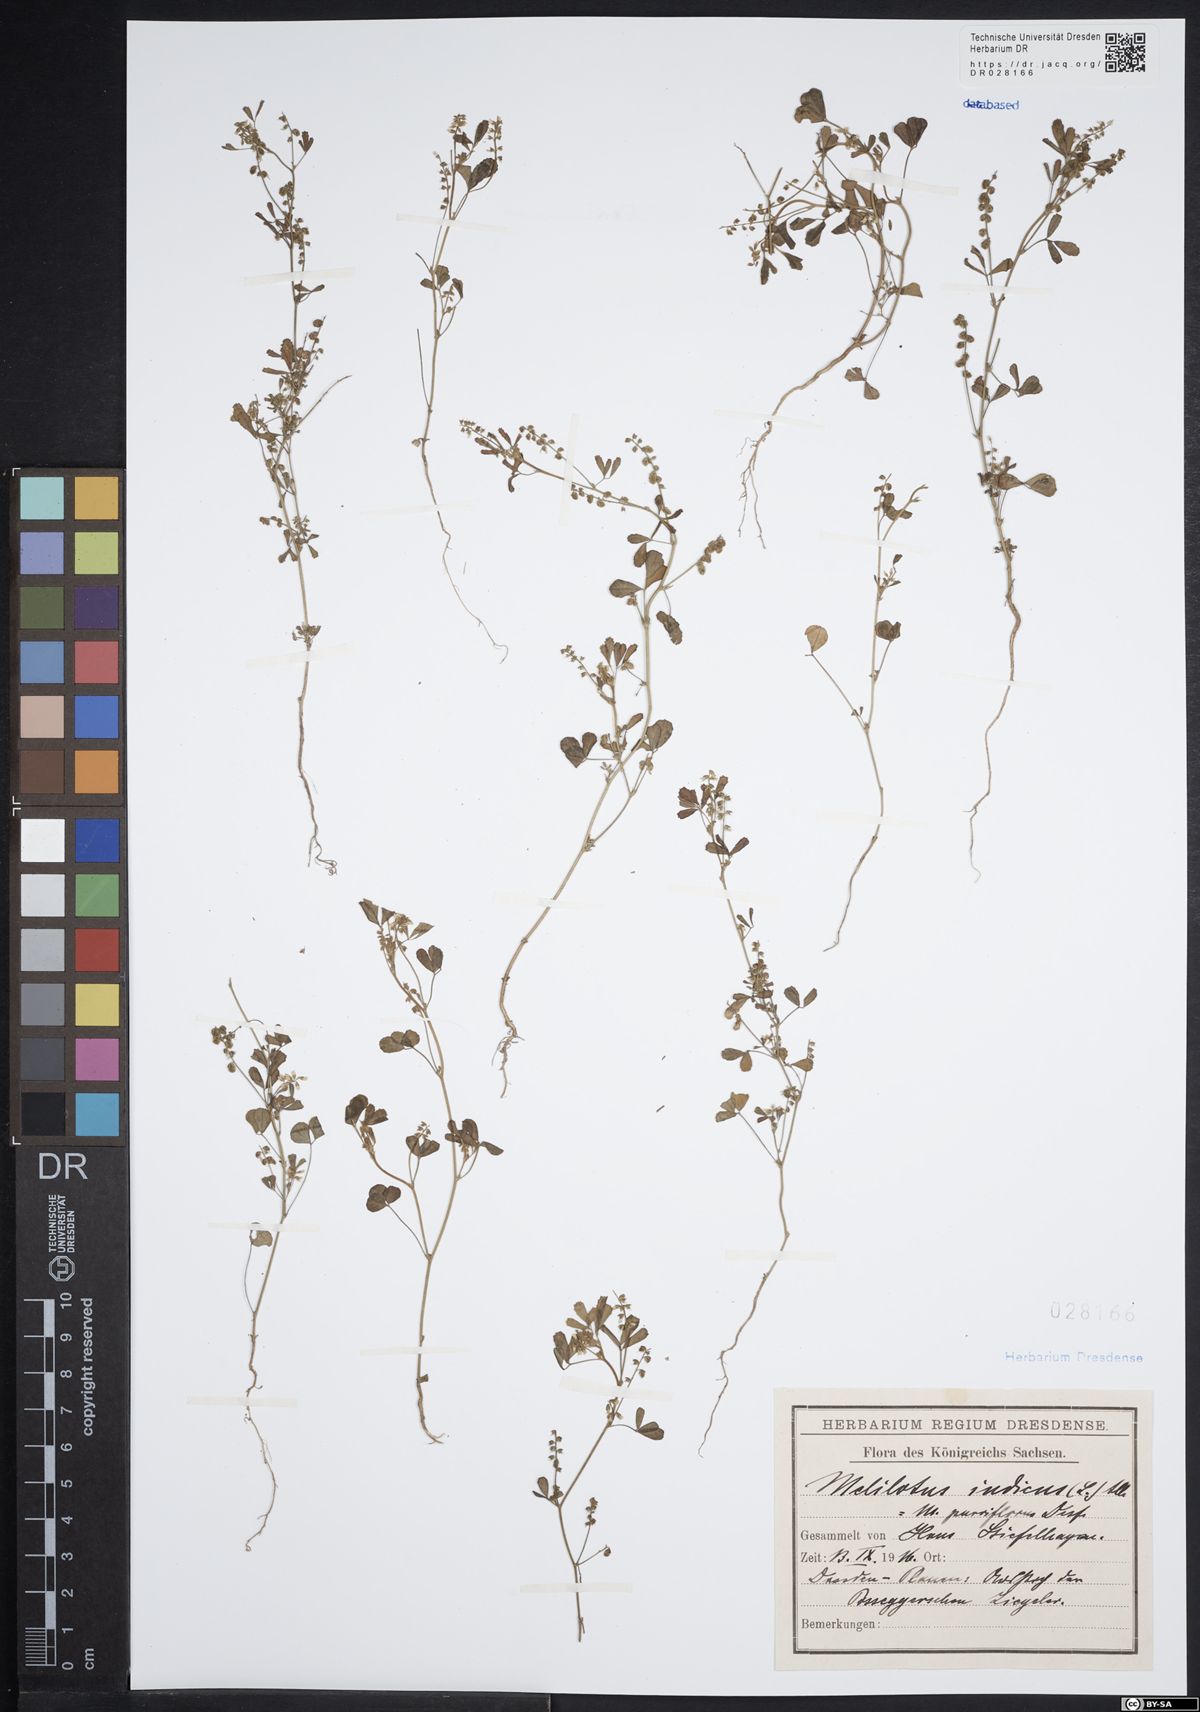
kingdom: Plantae
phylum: Tracheophyta
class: Magnoliopsida
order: Fabales
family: Fabaceae
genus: Melilotus
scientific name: Melilotus indicus
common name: Small melilot
